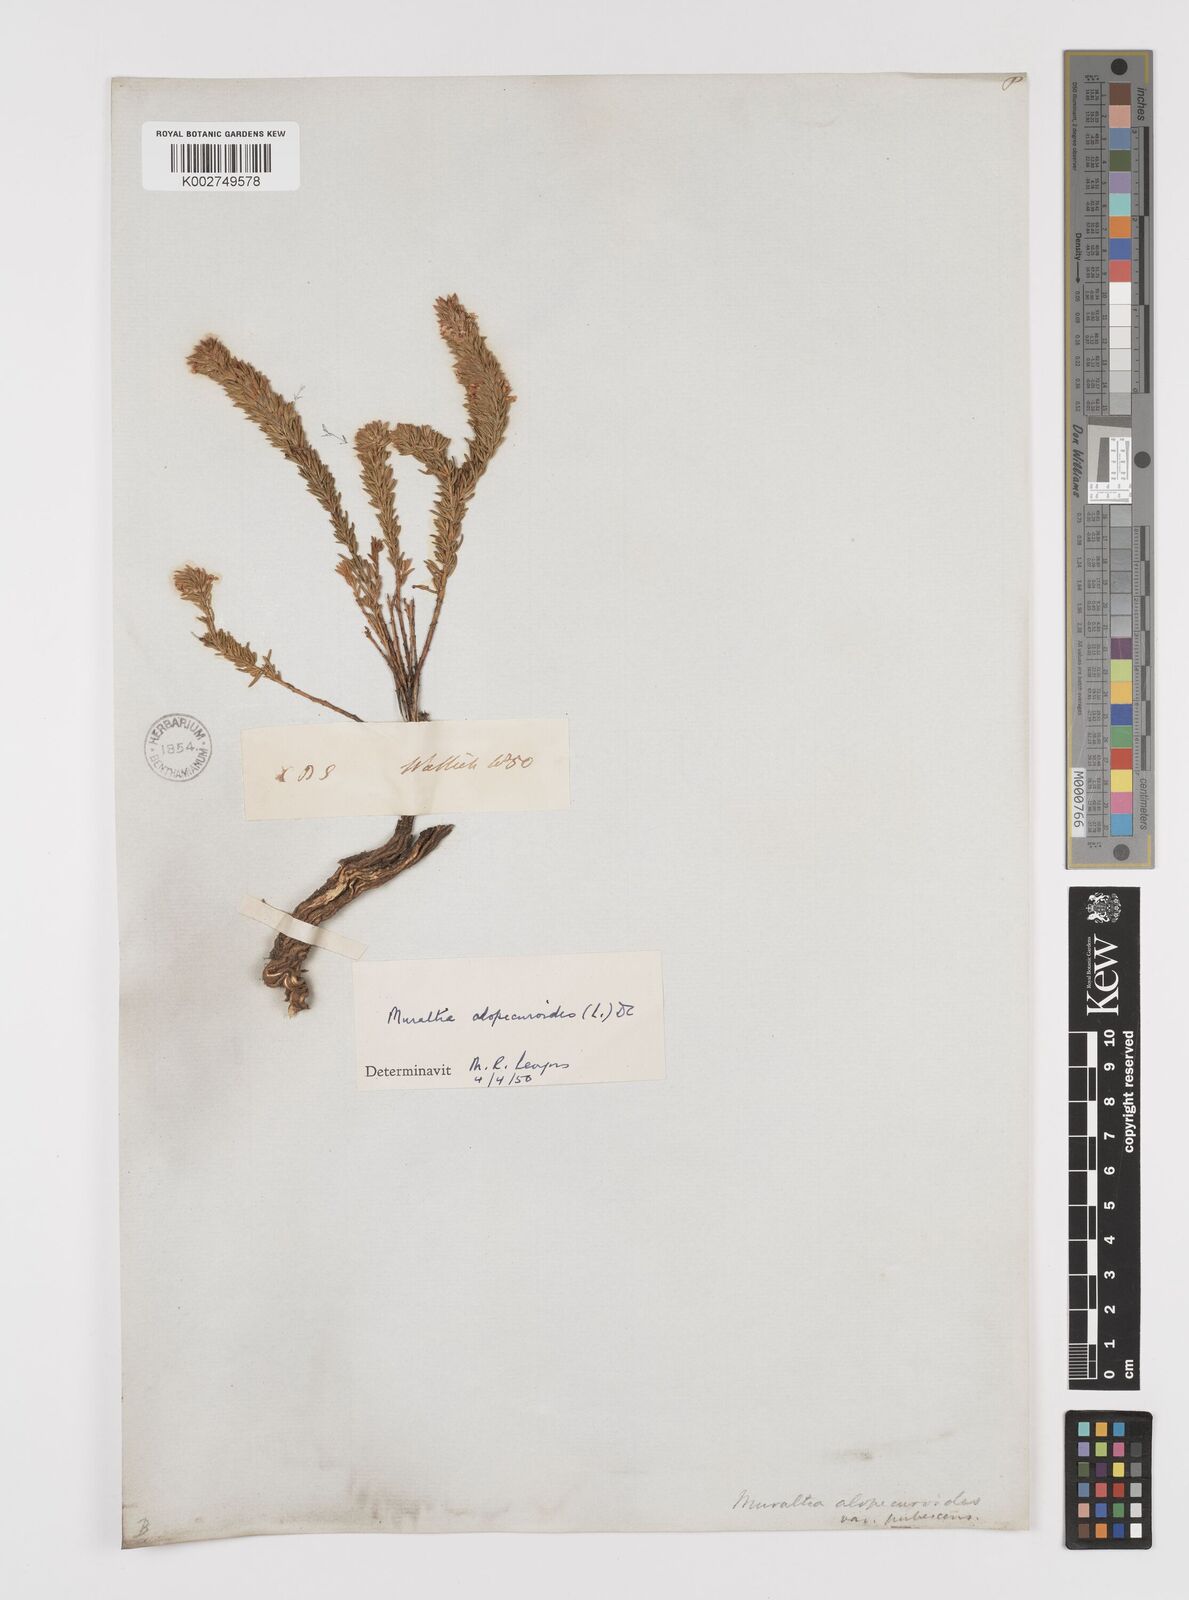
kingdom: Plantae
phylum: Tracheophyta
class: Magnoliopsida
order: Fabales
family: Polygalaceae
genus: Muraltia
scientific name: Muraltia alopecuroides
